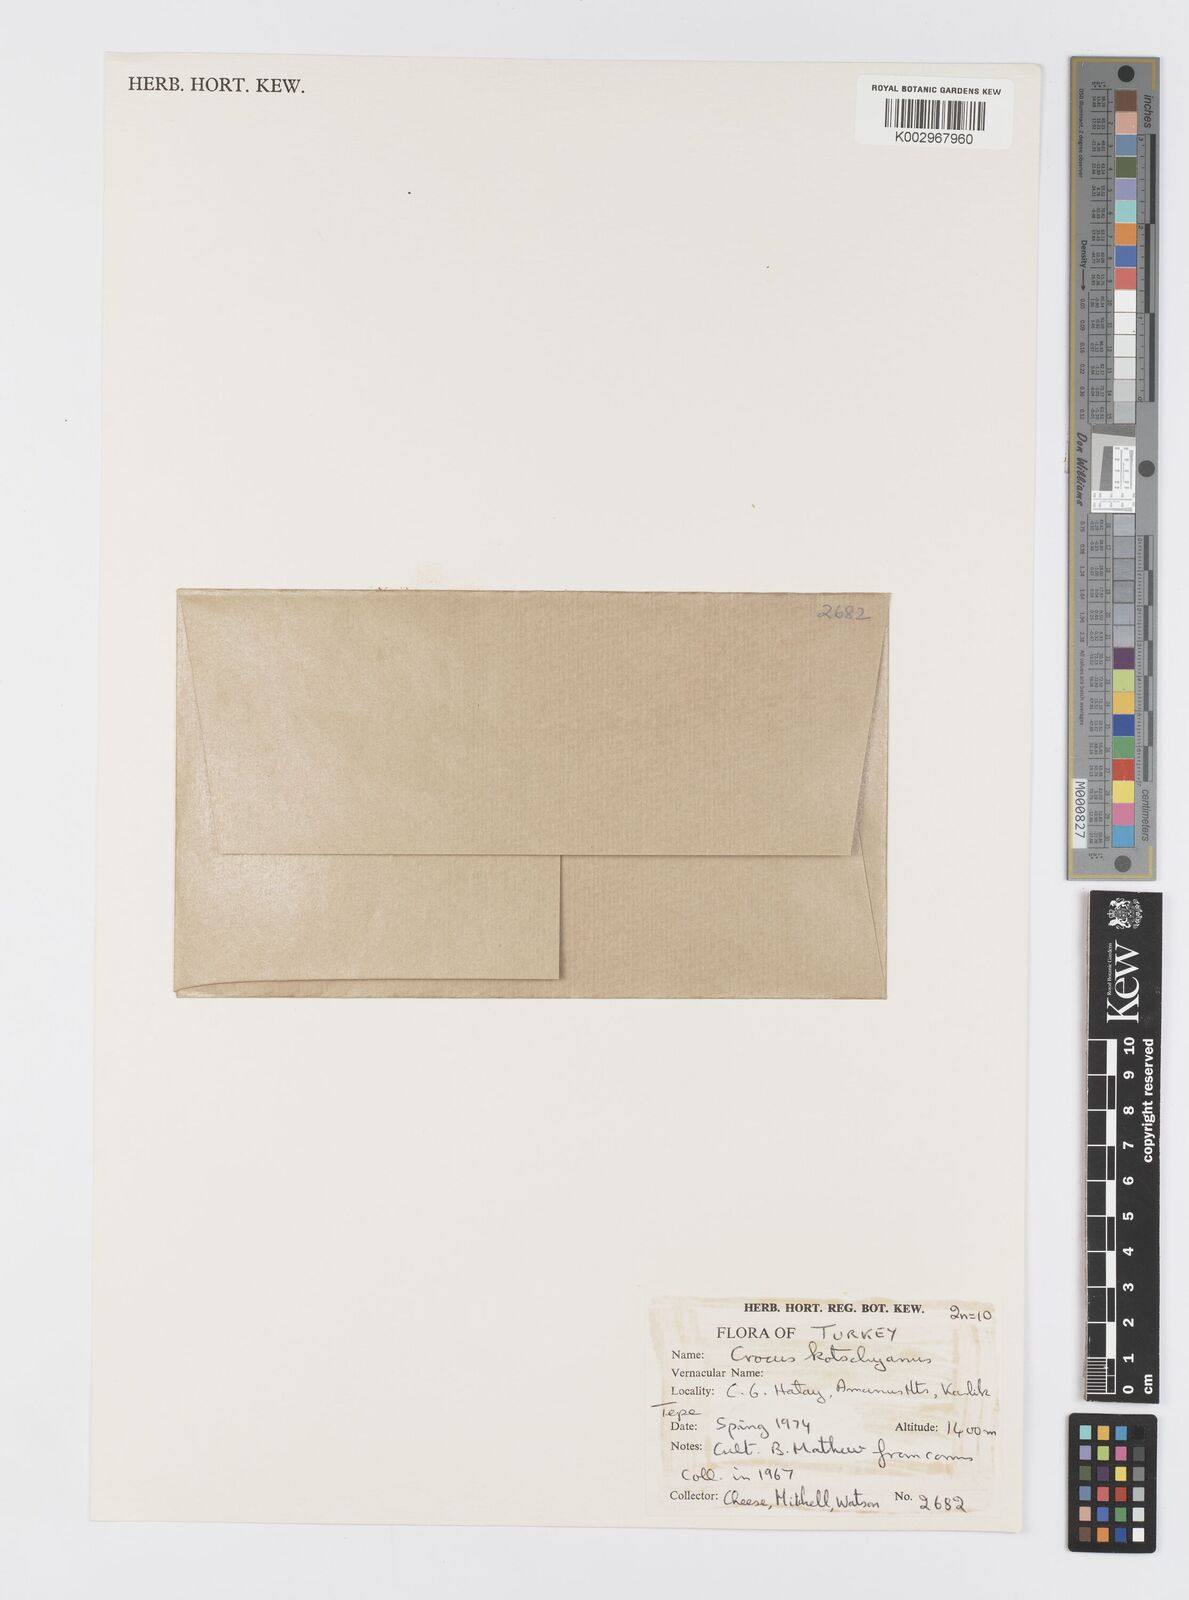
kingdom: Plantae
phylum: Tracheophyta
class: Liliopsida
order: Asparagales
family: Iridaceae
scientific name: Iridaceae
